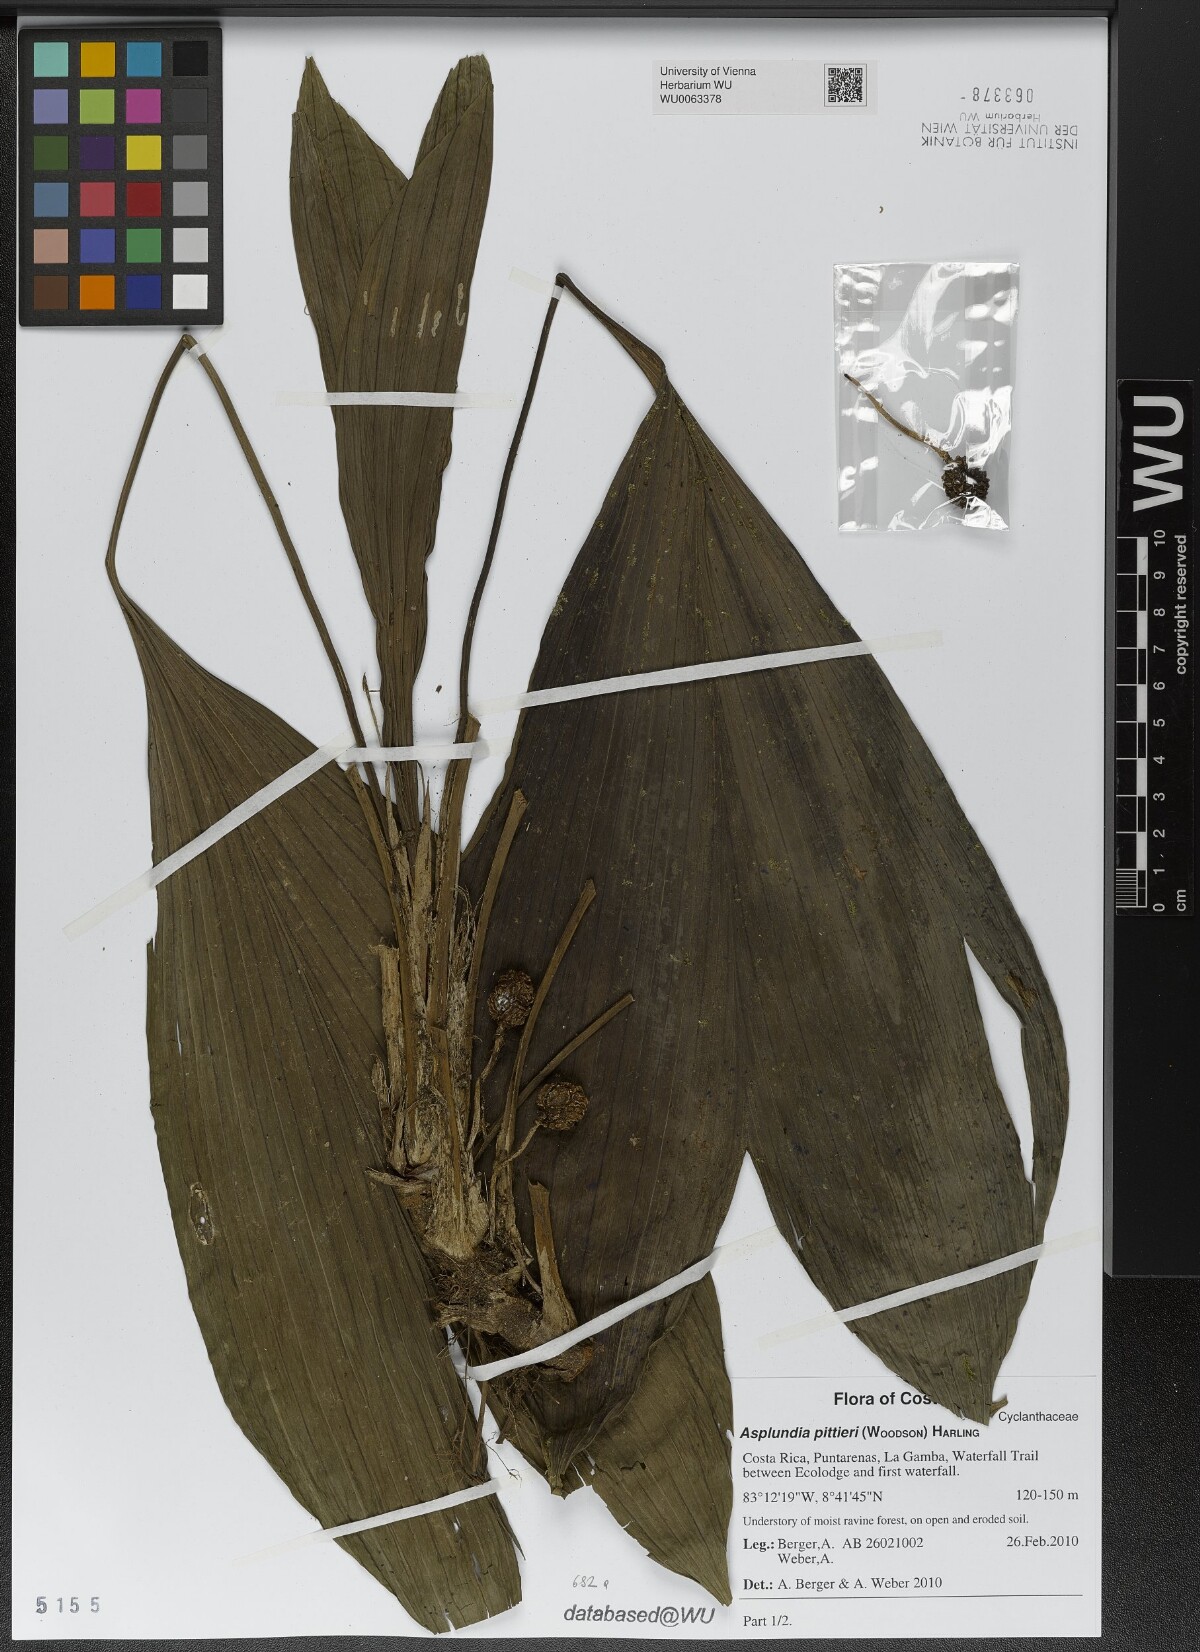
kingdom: Plantae
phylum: Tracheophyta
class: Liliopsida
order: Pandanales
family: Cyclanthaceae
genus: Asplundia
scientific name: Asplundia pittieri
